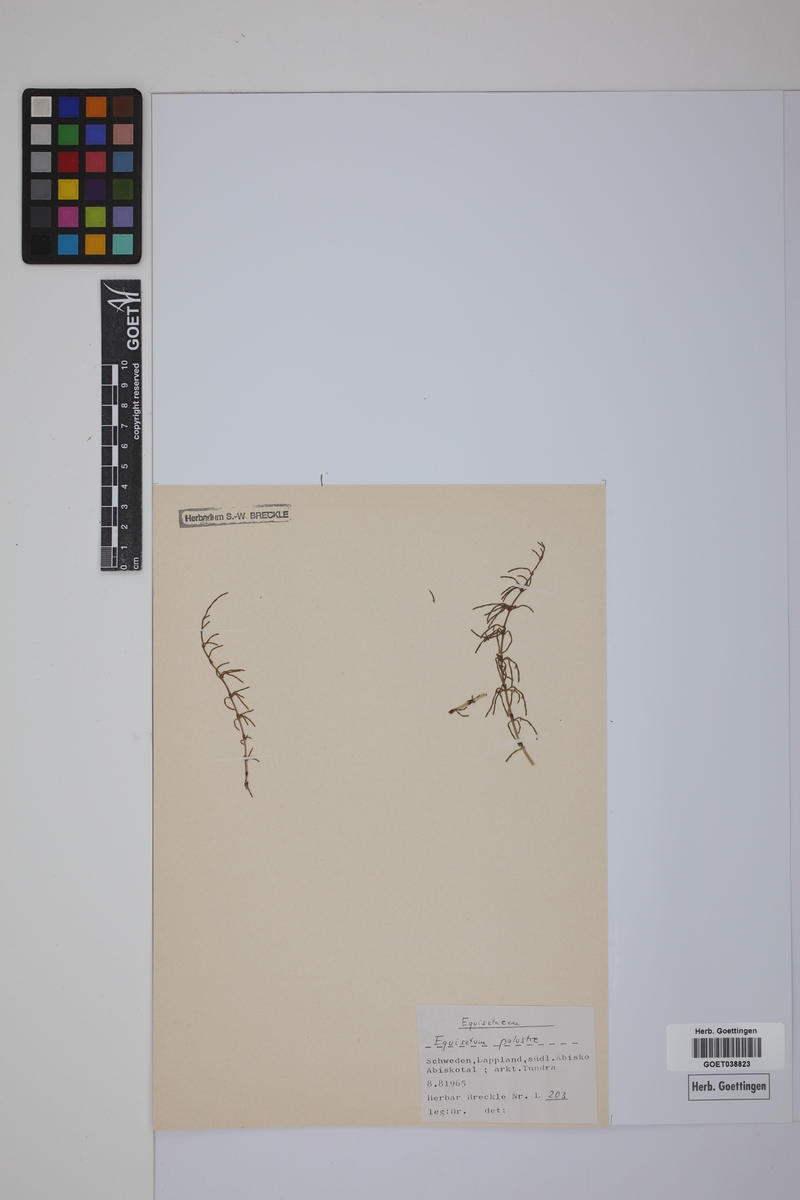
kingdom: Plantae
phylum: Tracheophyta
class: Polypodiopsida
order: Equisetales
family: Equisetaceae
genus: Equisetum
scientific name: Equisetum palustre
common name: Marsh horsetail
